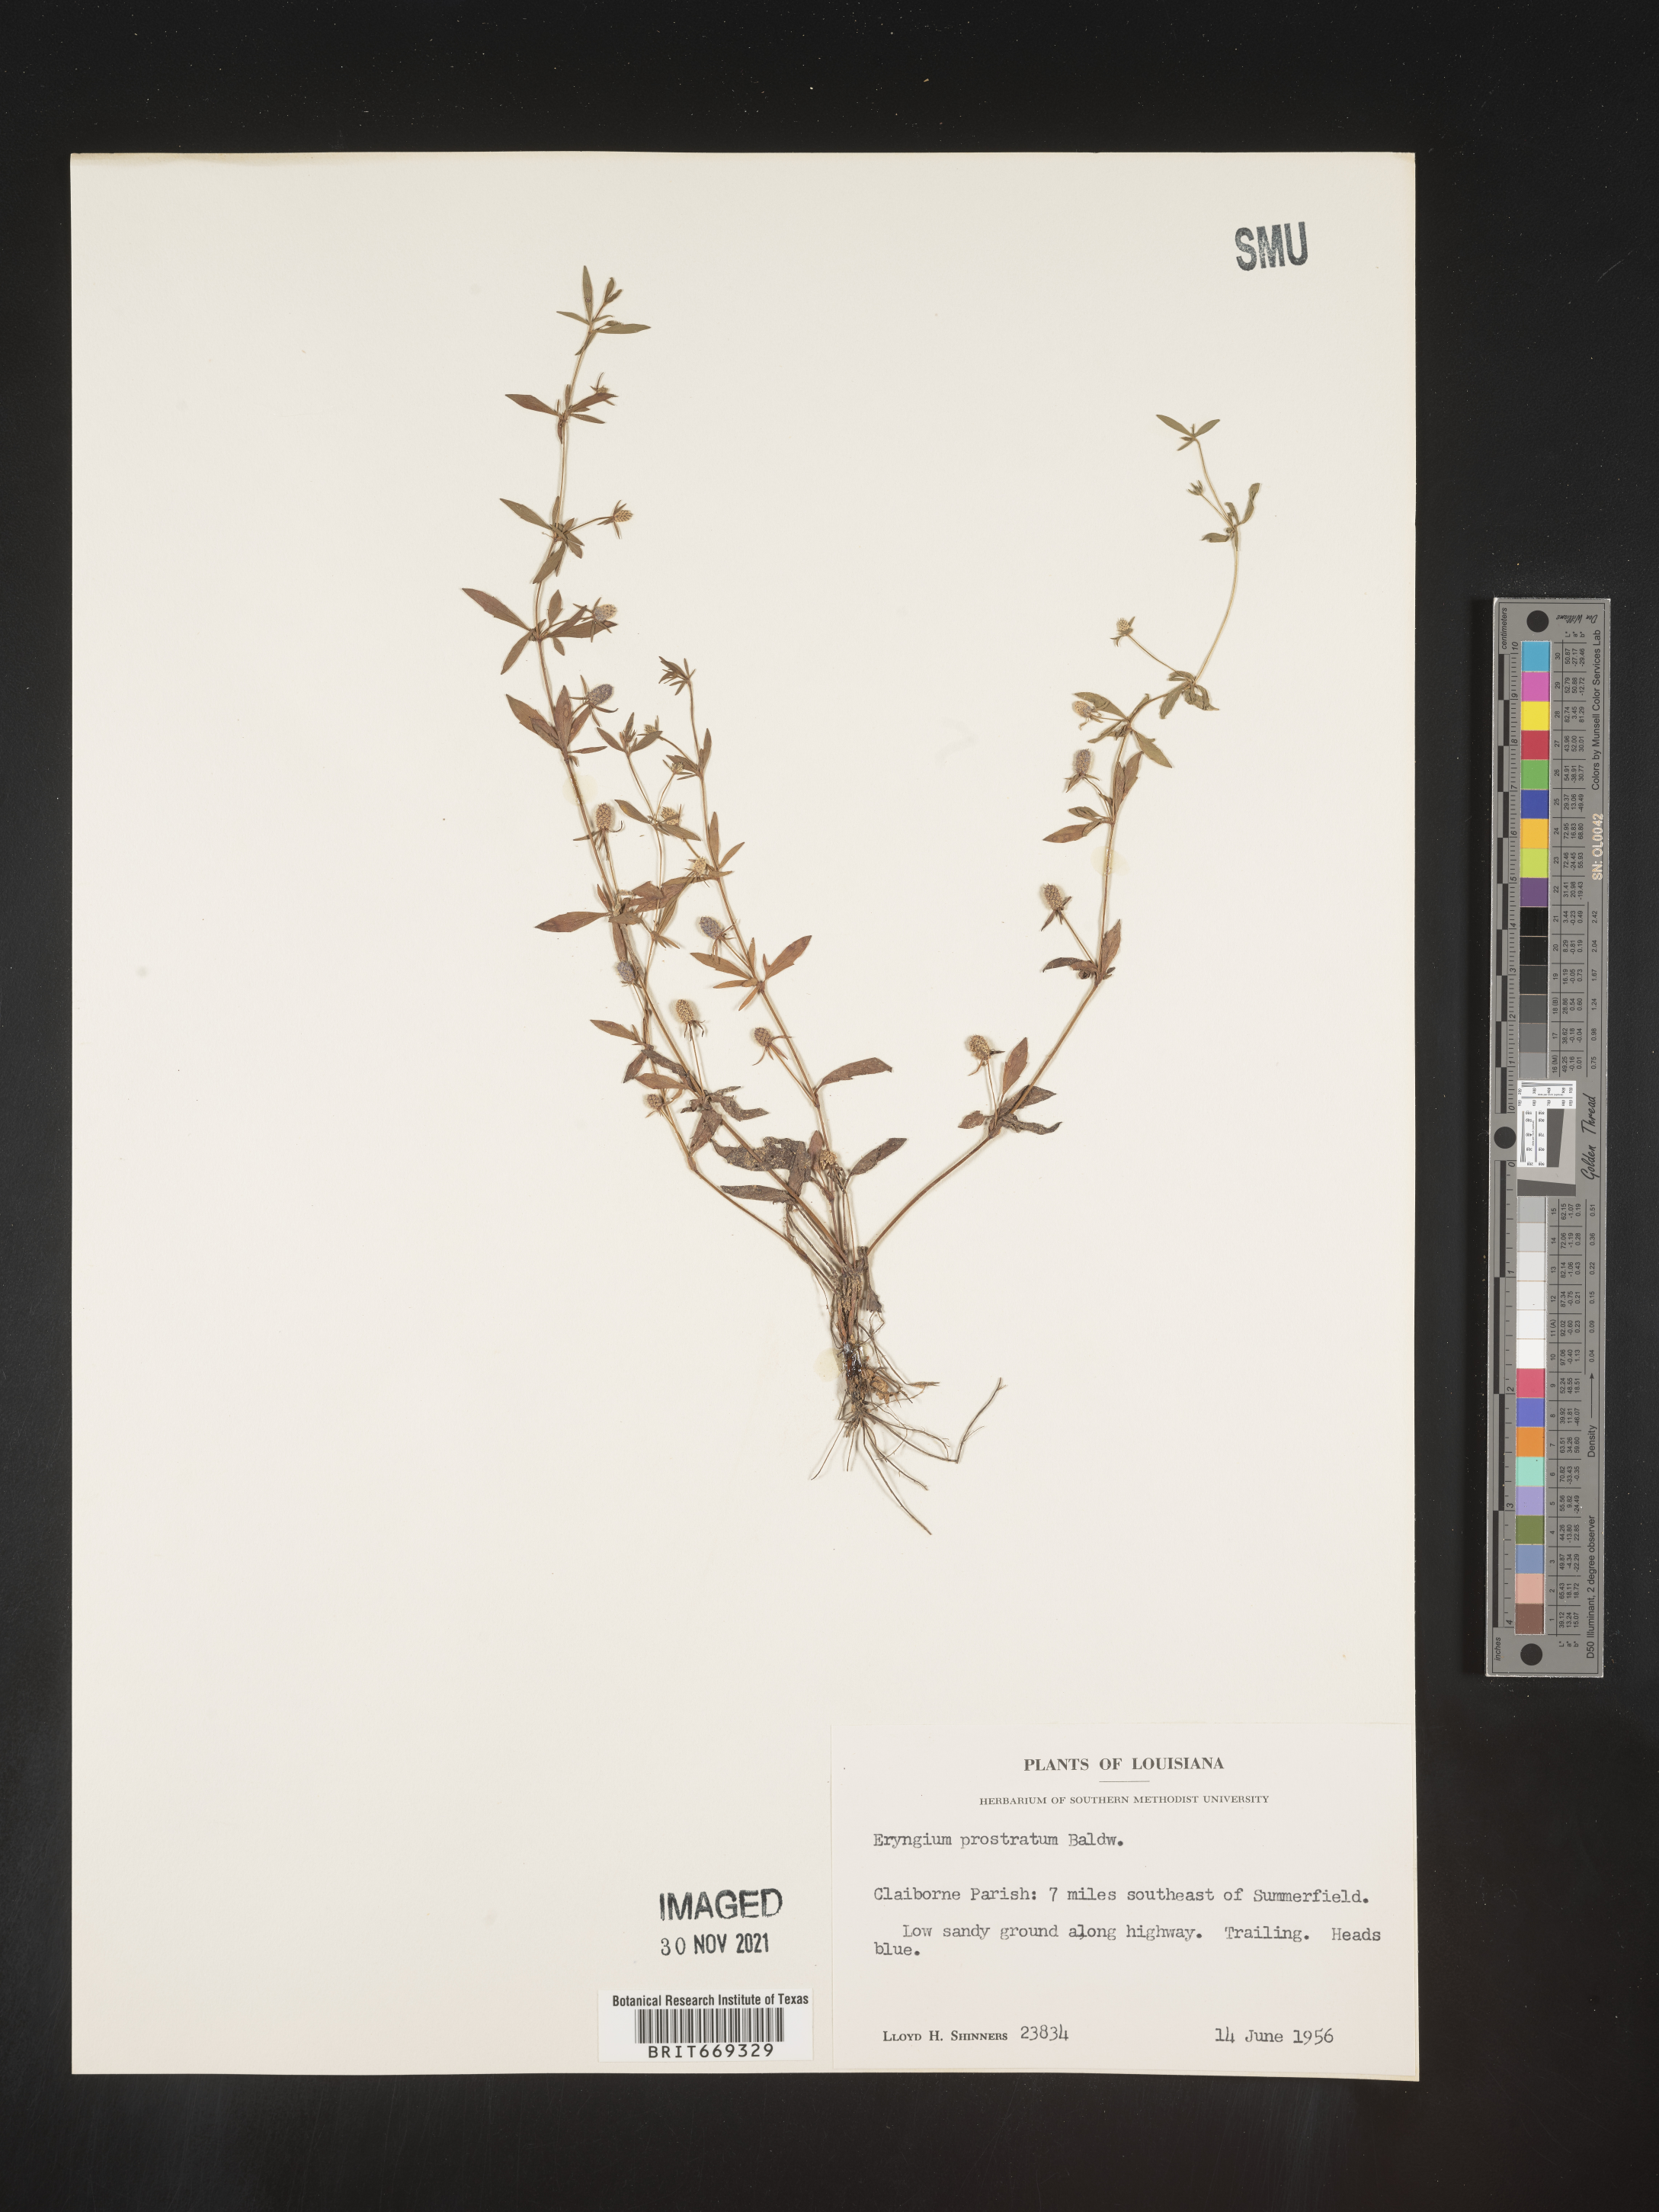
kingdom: Plantae
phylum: Tracheophyta
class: Magnoliopsida
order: Apiales
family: Apiaceae
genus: Eryngium
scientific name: Eryngium prostratum
